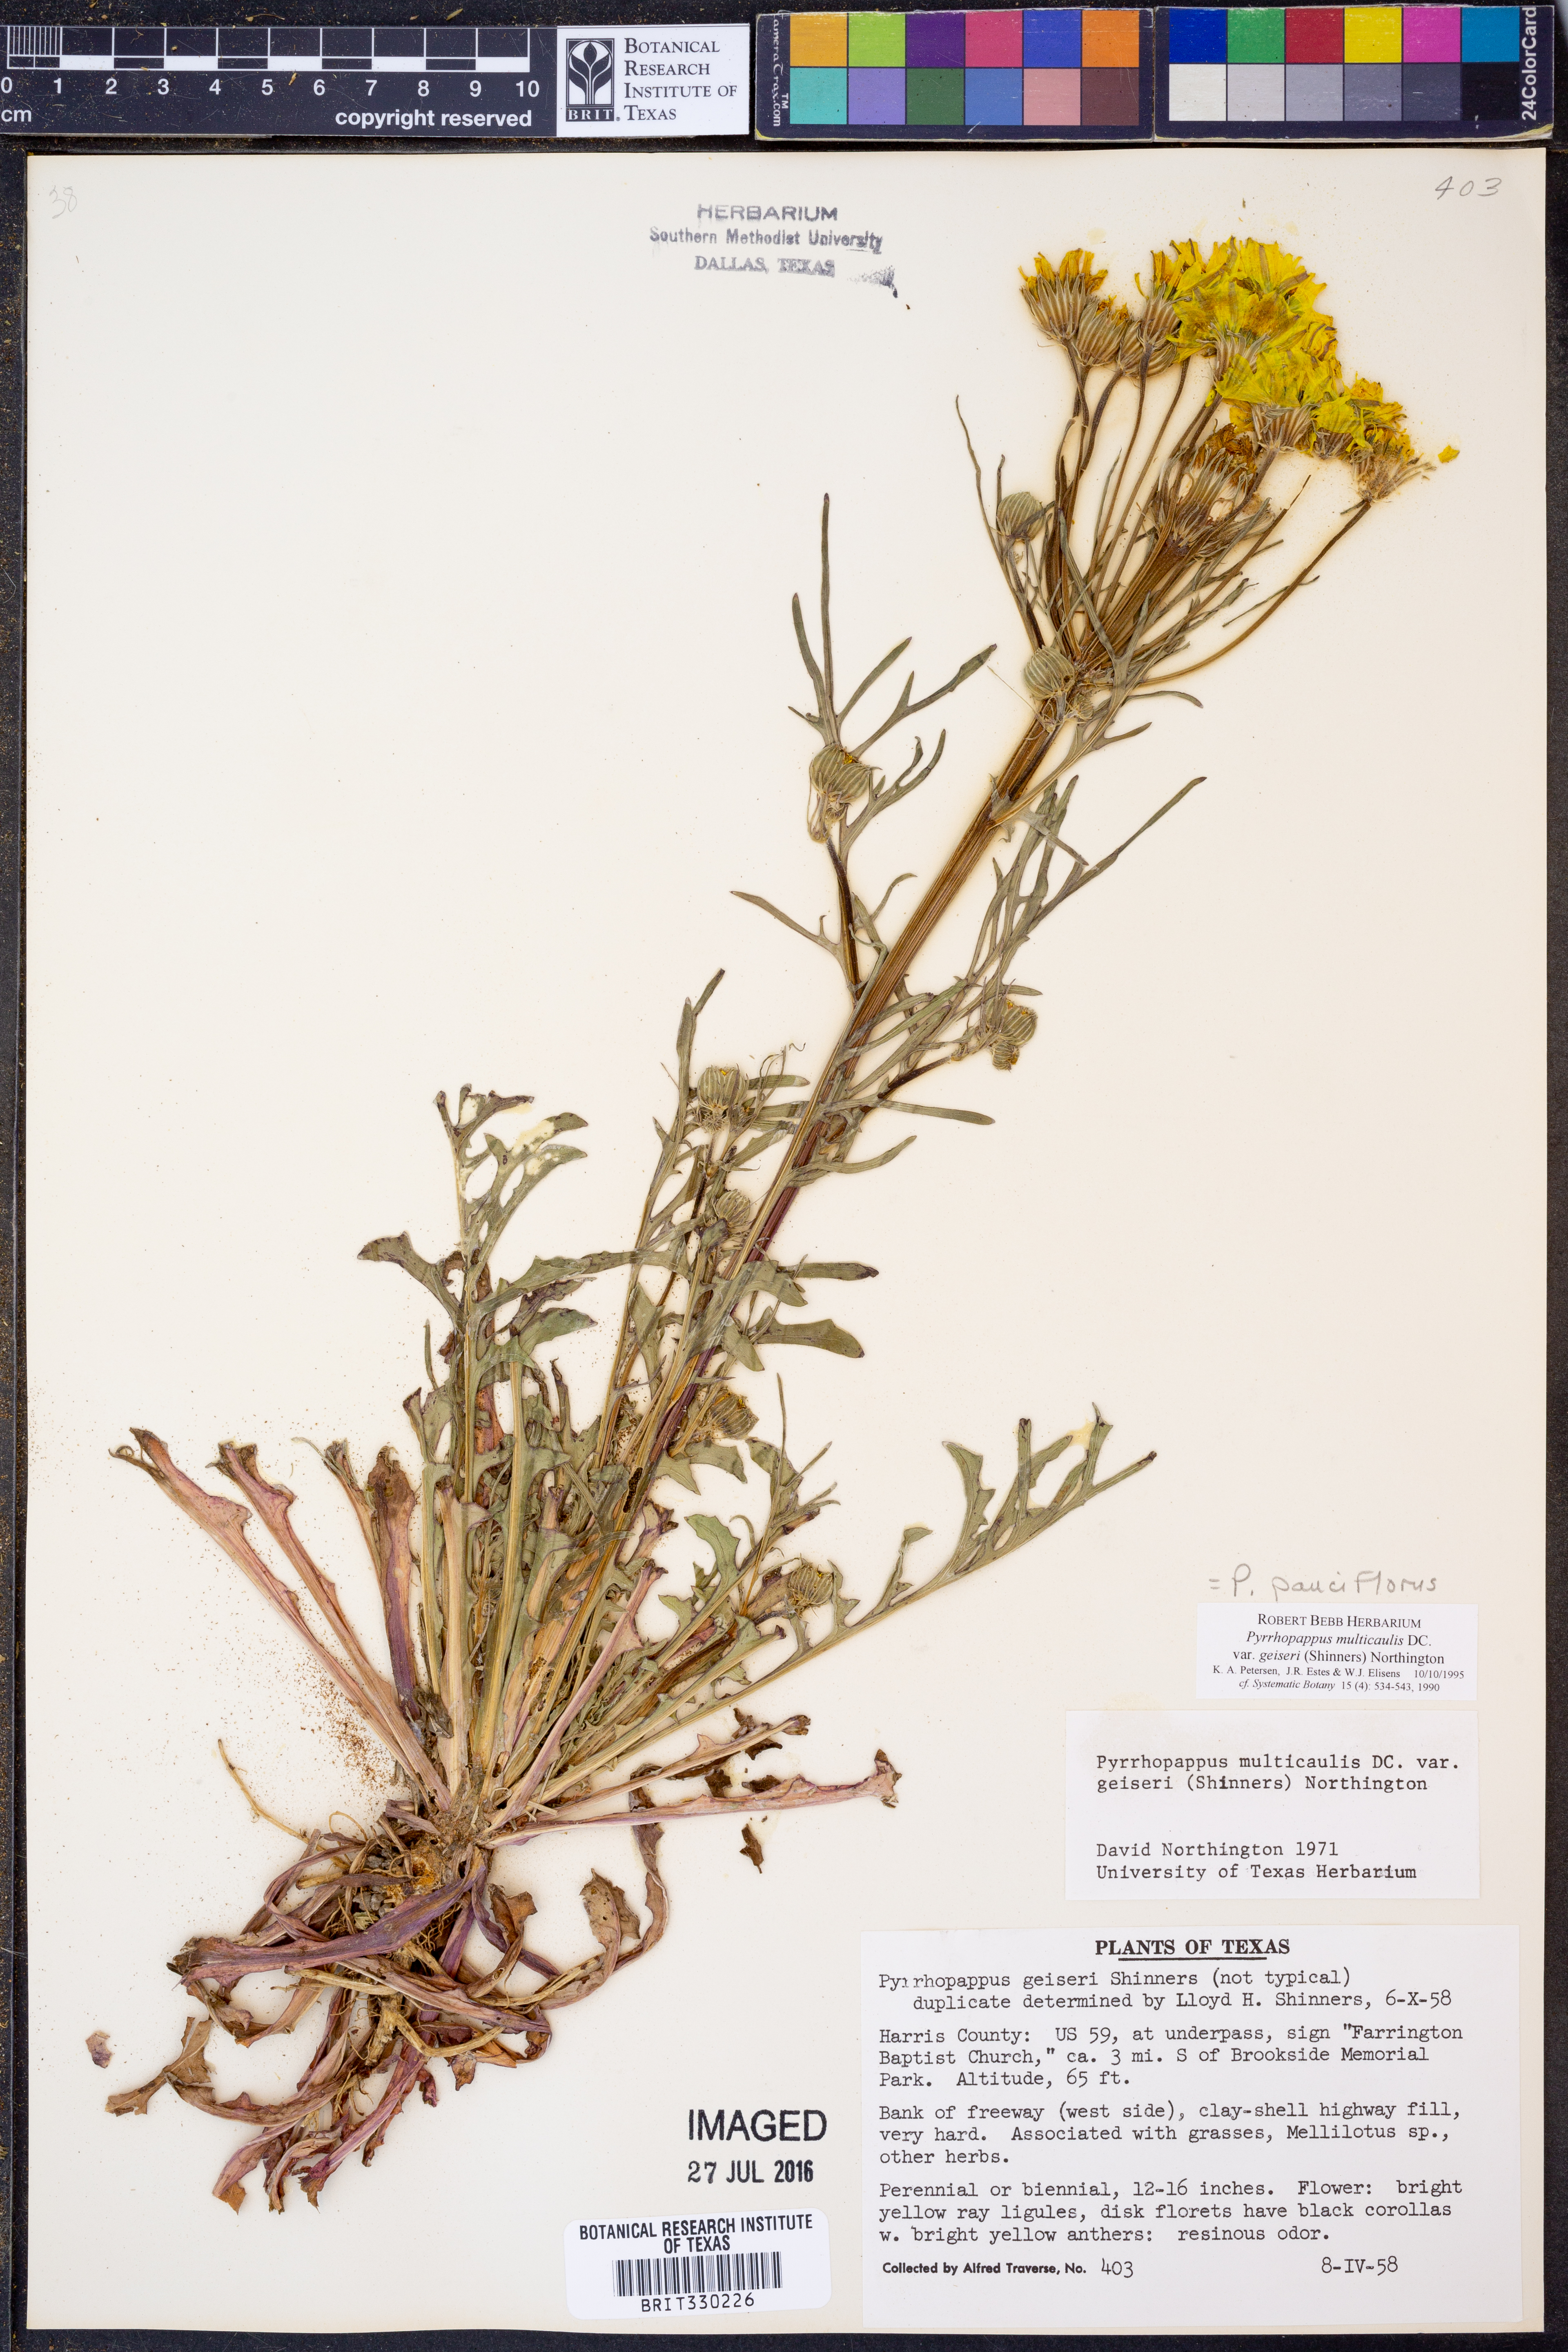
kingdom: Plantae
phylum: Tracheophyta
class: Magnoliopsida
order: Asterales
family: Asteraceae
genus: Pyrrhopappus
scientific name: Pyrrhopappus pauciflorus
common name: Texas false dandelion
